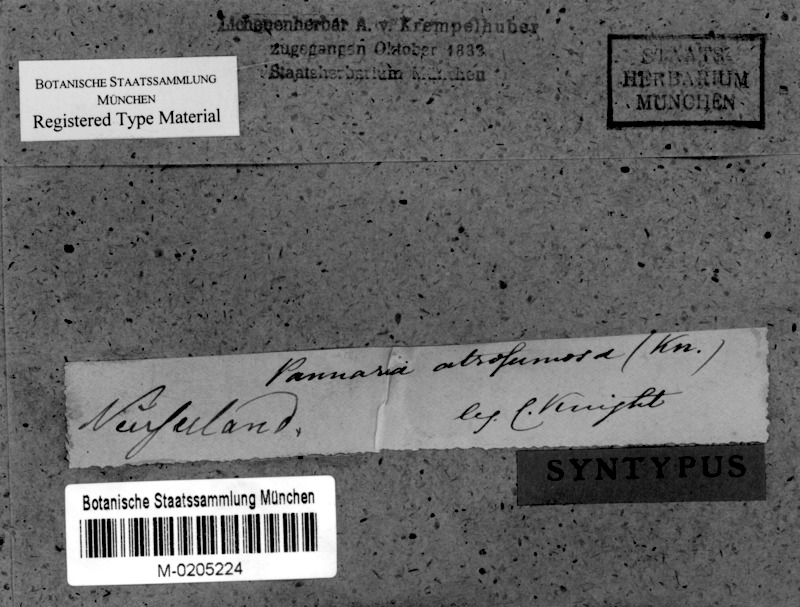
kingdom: Fungi
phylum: Ascomycota
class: Lecanoromycetes
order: Peltigerales
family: Pannariaceae
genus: Pannaria
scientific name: Pannaria immixta
